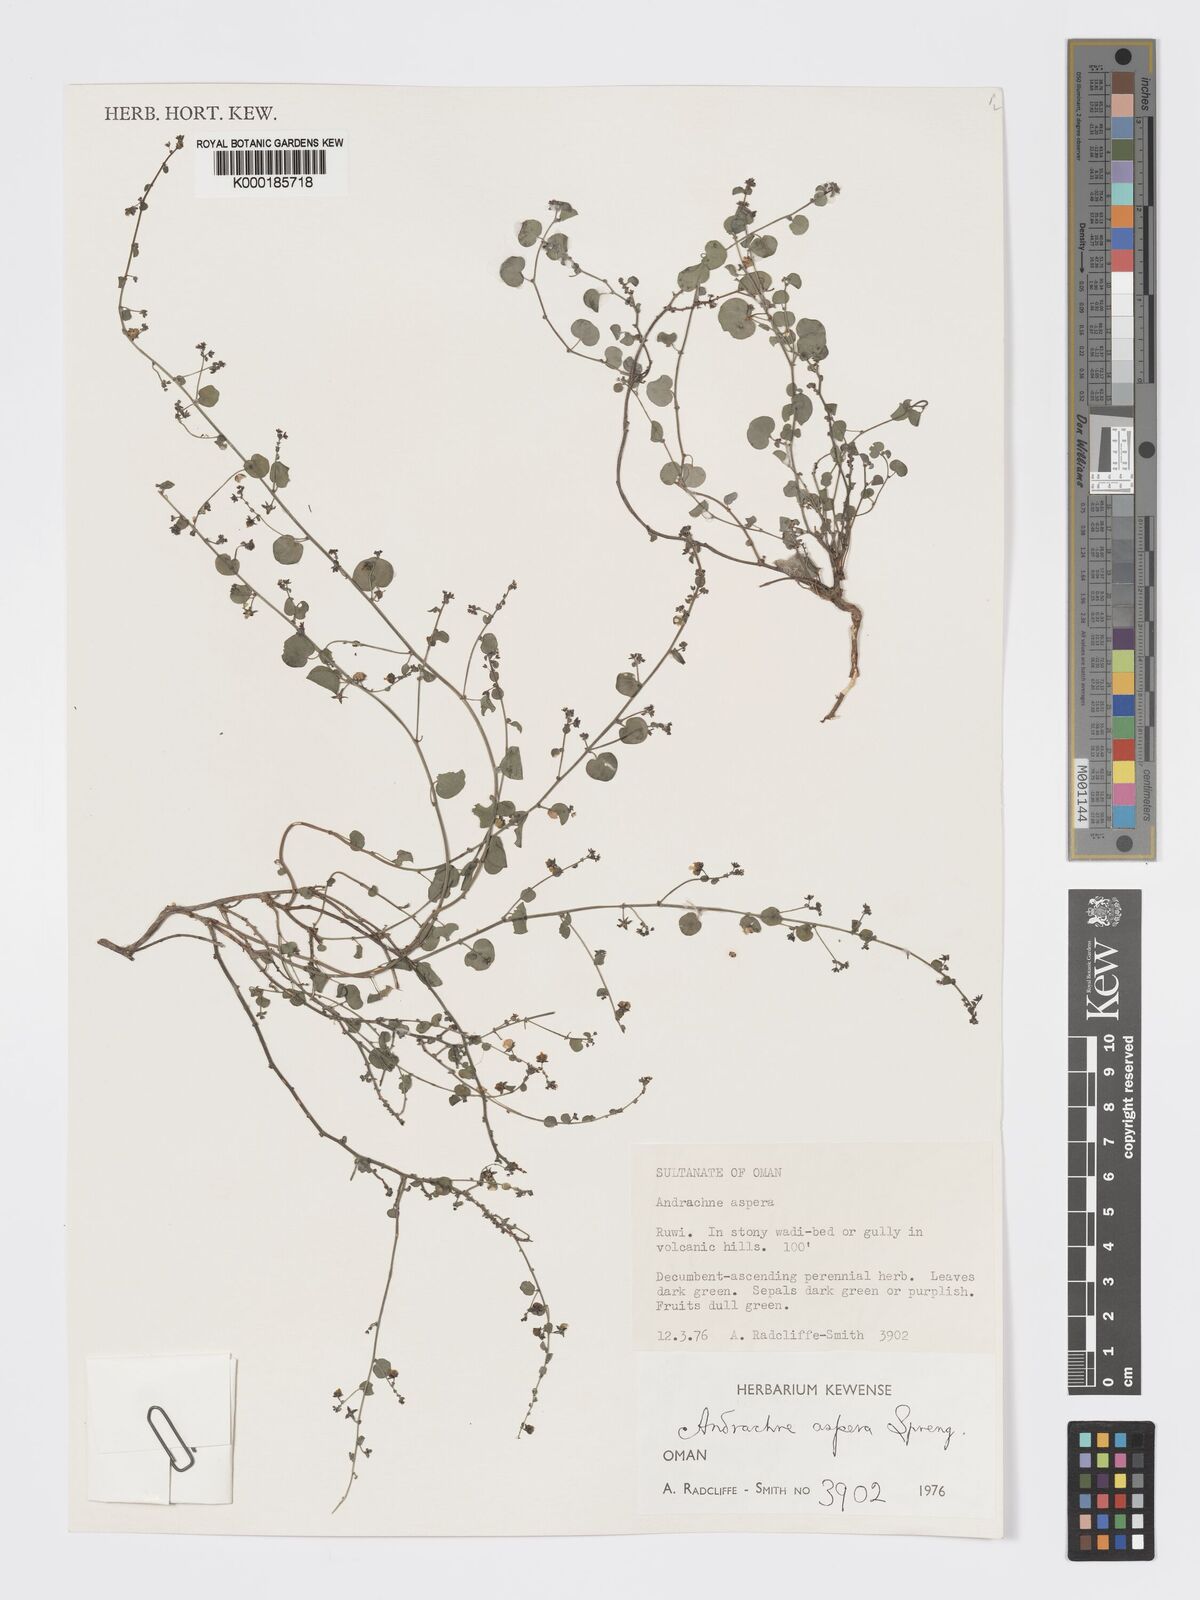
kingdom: Plantae
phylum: Tracheophyta
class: Magnoliopsida
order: Malpighiales
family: Phyllanthaceae
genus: Andrachne
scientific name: Andrachne aspera
